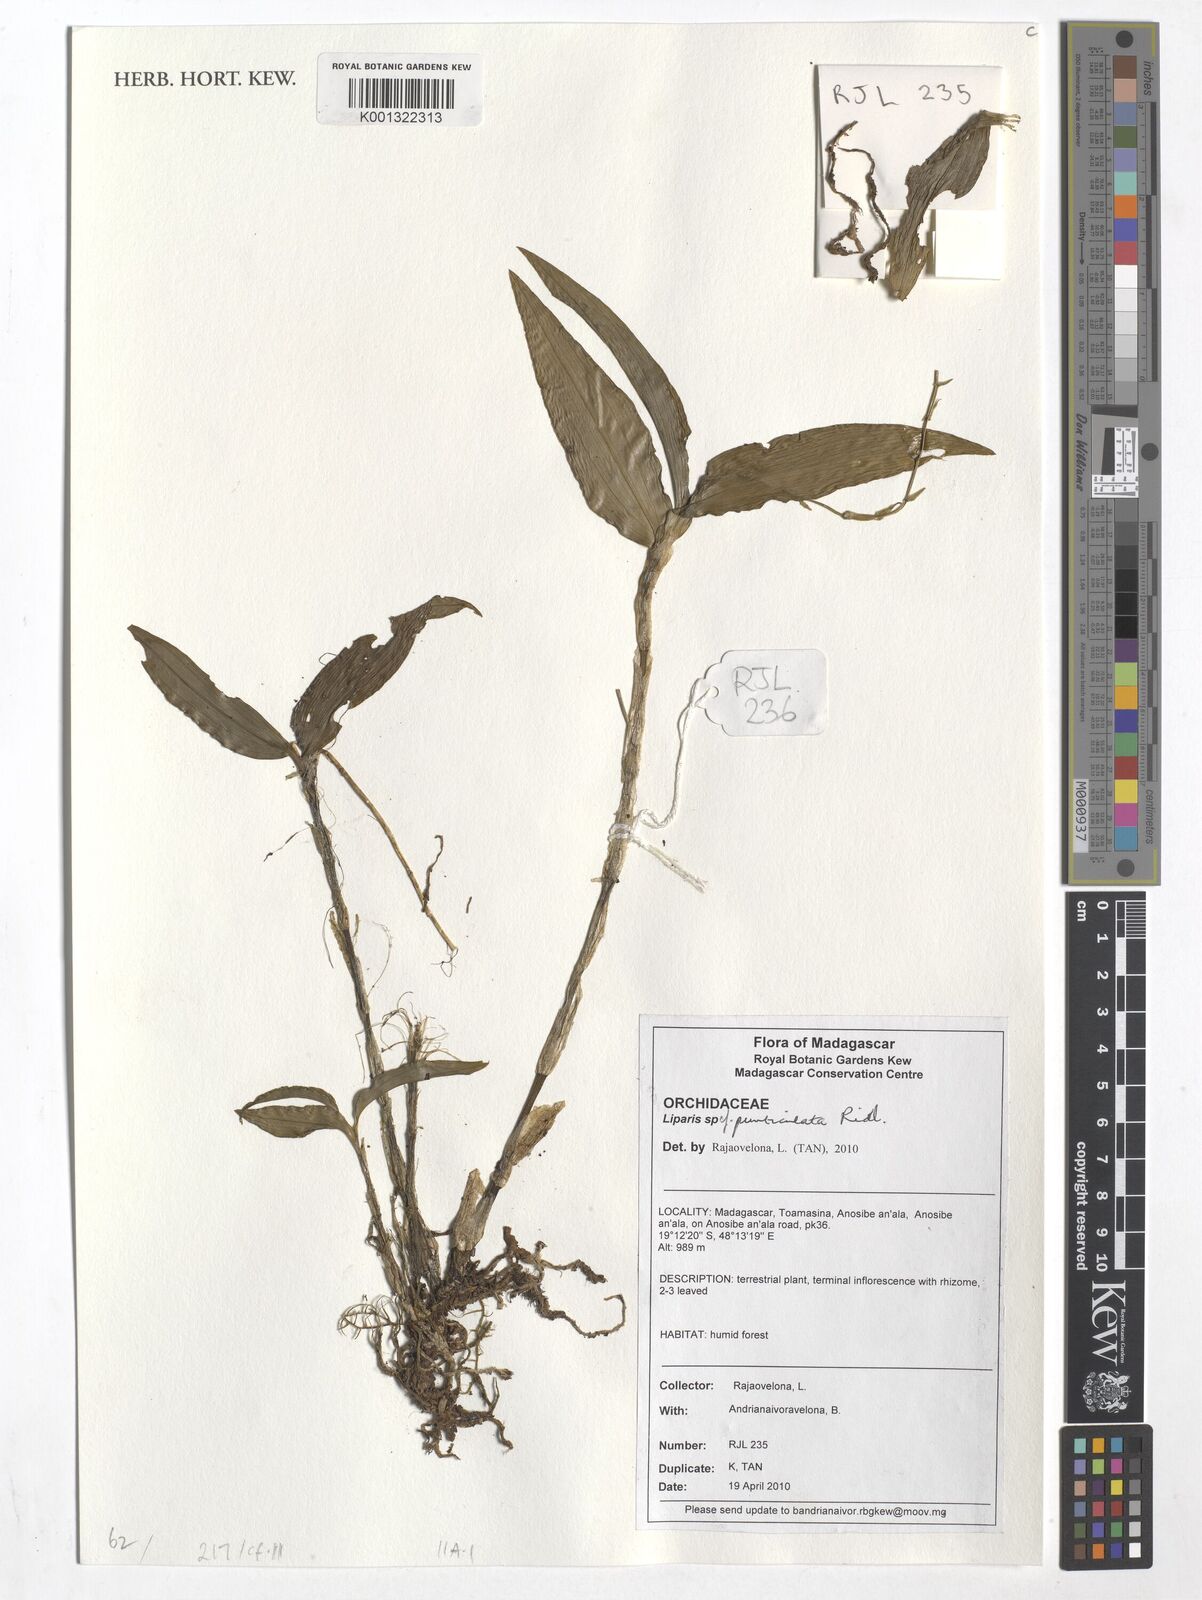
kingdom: Plantae
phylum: Tracheophyta
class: Liliopsida
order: Asparagales
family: Orchidaceae
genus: Liparis
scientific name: Liparis puncticulata
